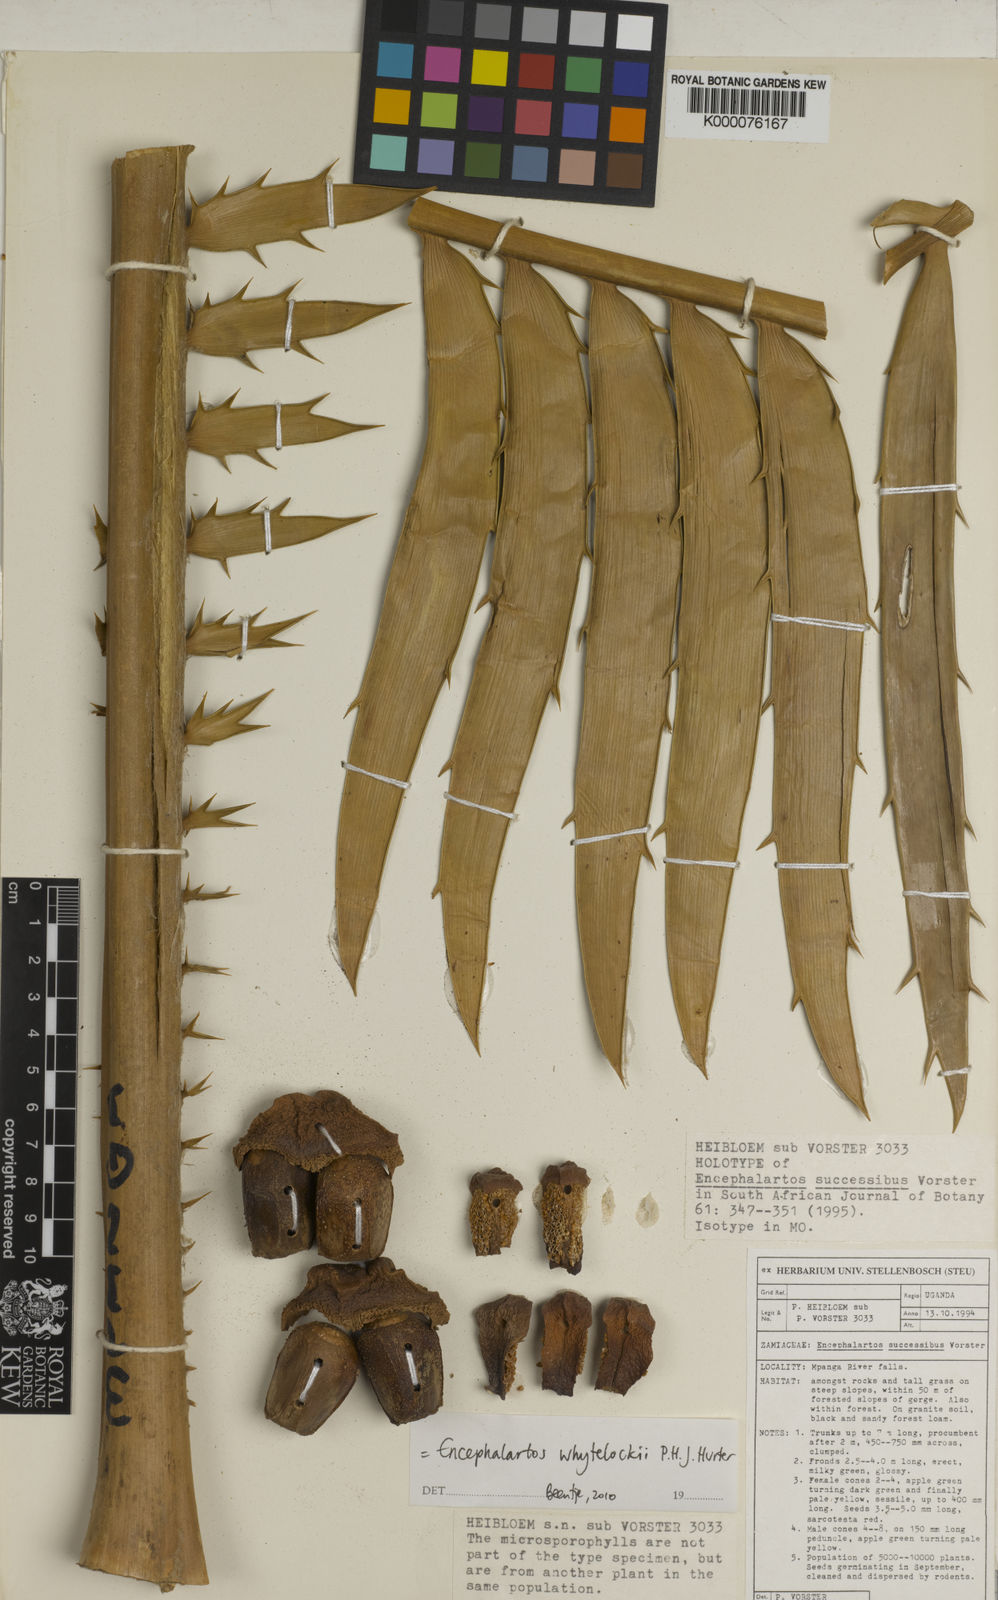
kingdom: Plantae
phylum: Tracheophyta
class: Cycadopsida
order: Cycadales
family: Zamiaceae
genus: Encephalartos
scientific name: Encephalartos whitelockii
